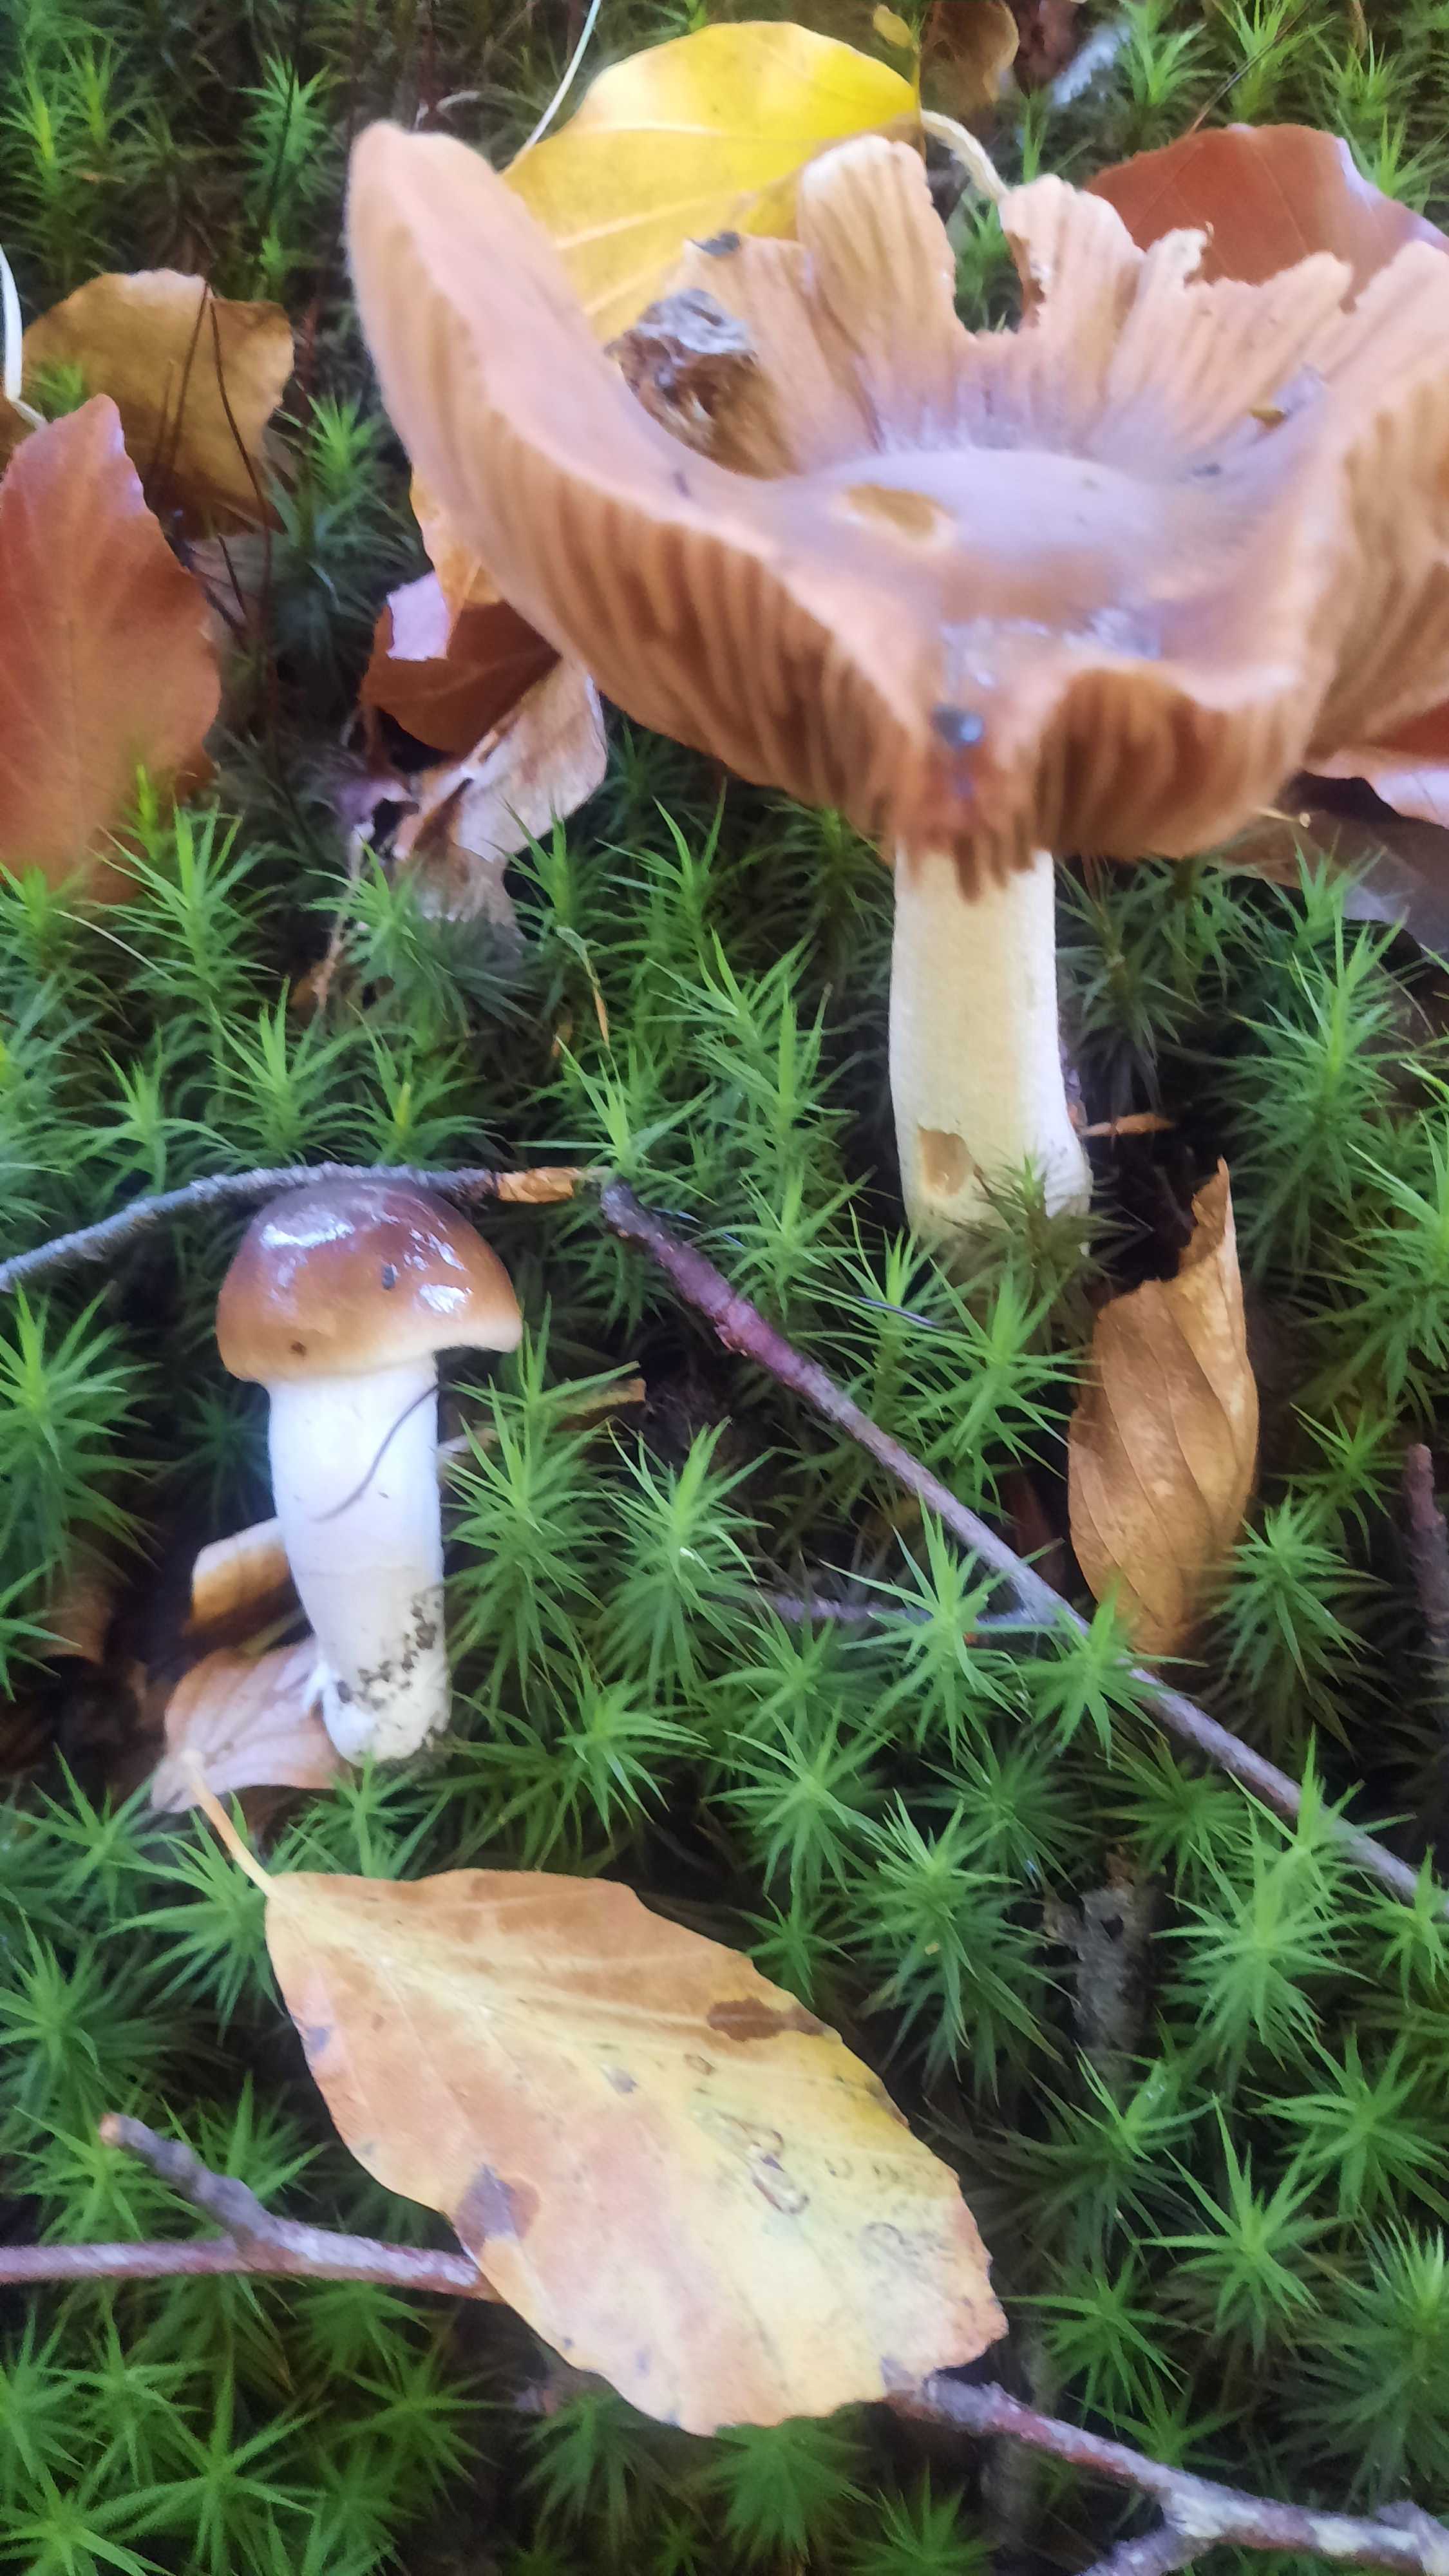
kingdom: Fungi
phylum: Basidiomycota
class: Agaricomycetes
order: Agaricales
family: Cortinariaceae
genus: Cortinarius
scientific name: Cortinarius elatior
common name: høj slørhat
